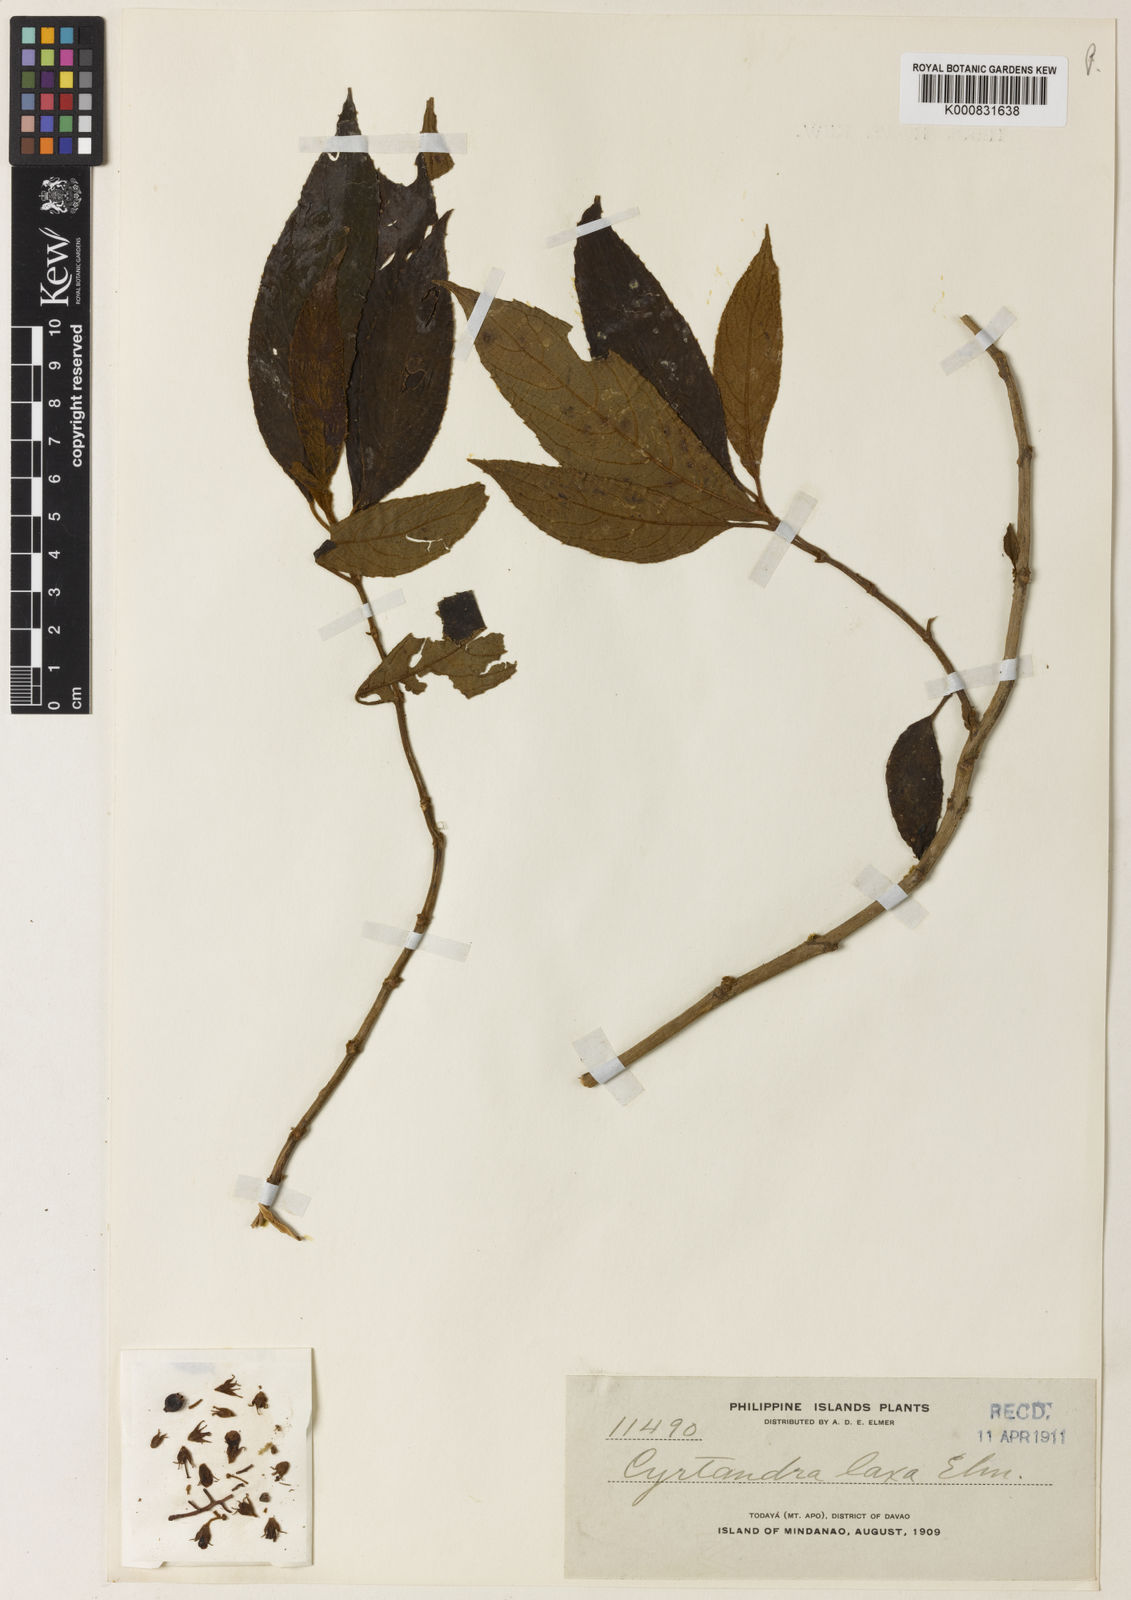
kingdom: Plantae
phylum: Tracheophyta
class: Magnoliopsida
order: Lamiales
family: Gesneriaceae
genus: Cyrtandra
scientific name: Cyrtandra pallida
